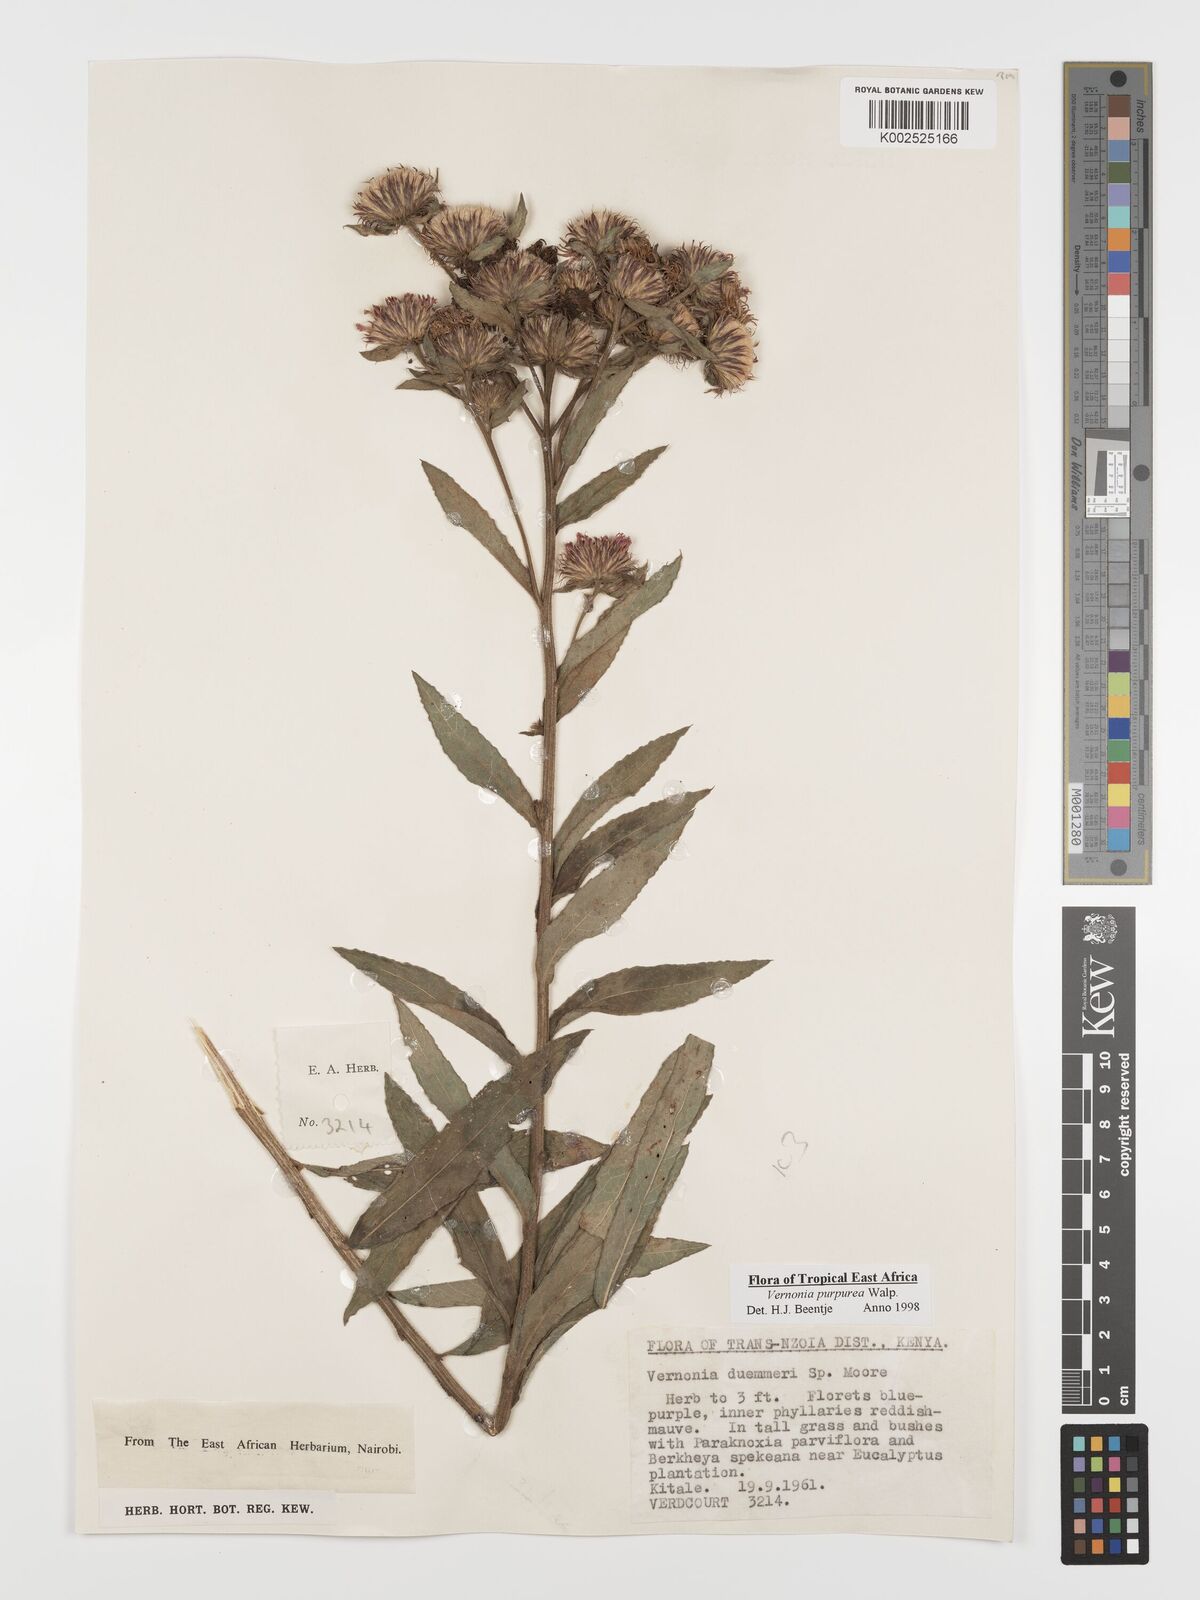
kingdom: Plantae
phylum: Tracheophyta
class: Magnoliopsida
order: Asterales
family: Asteraceae
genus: Nothovernonia
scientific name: Nothovernonia purpurea
